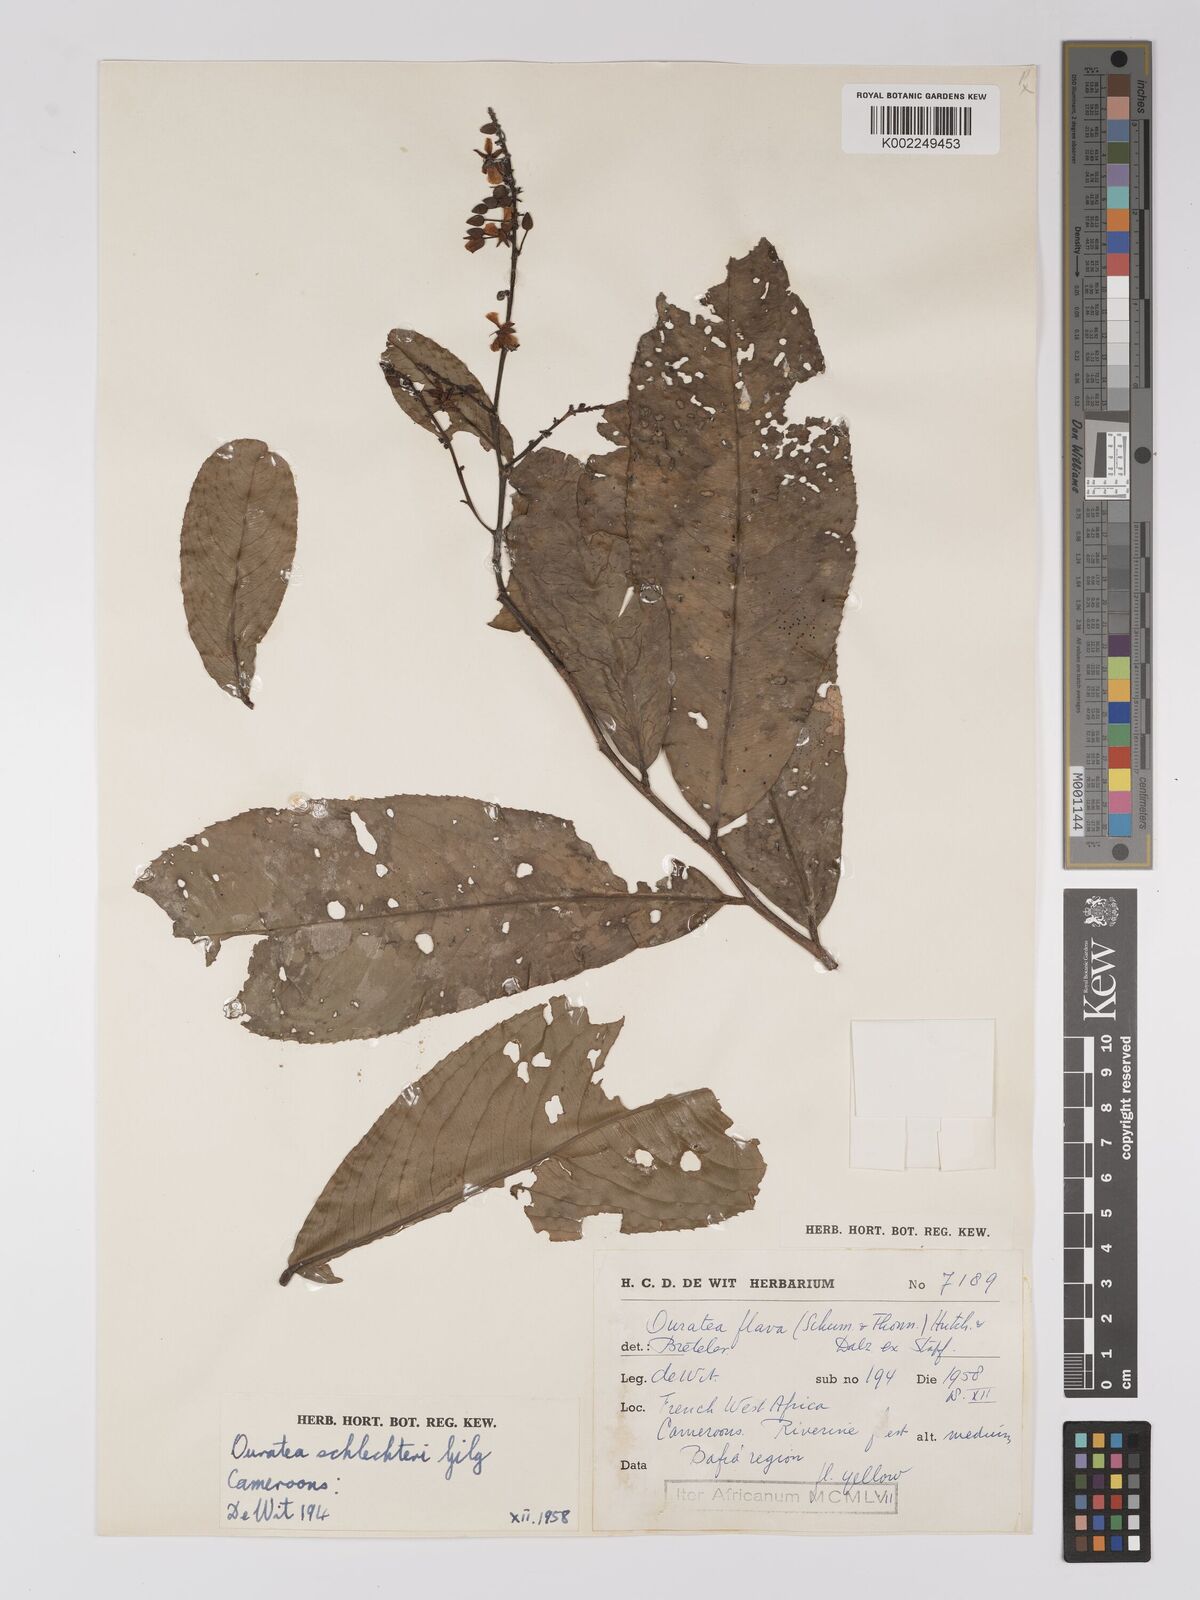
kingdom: Plantae
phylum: Tracheophyta
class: Magnoliopsida
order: Malpighiales
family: Ochnaceae
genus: Campylospermum
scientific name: Campylospermum flavum
